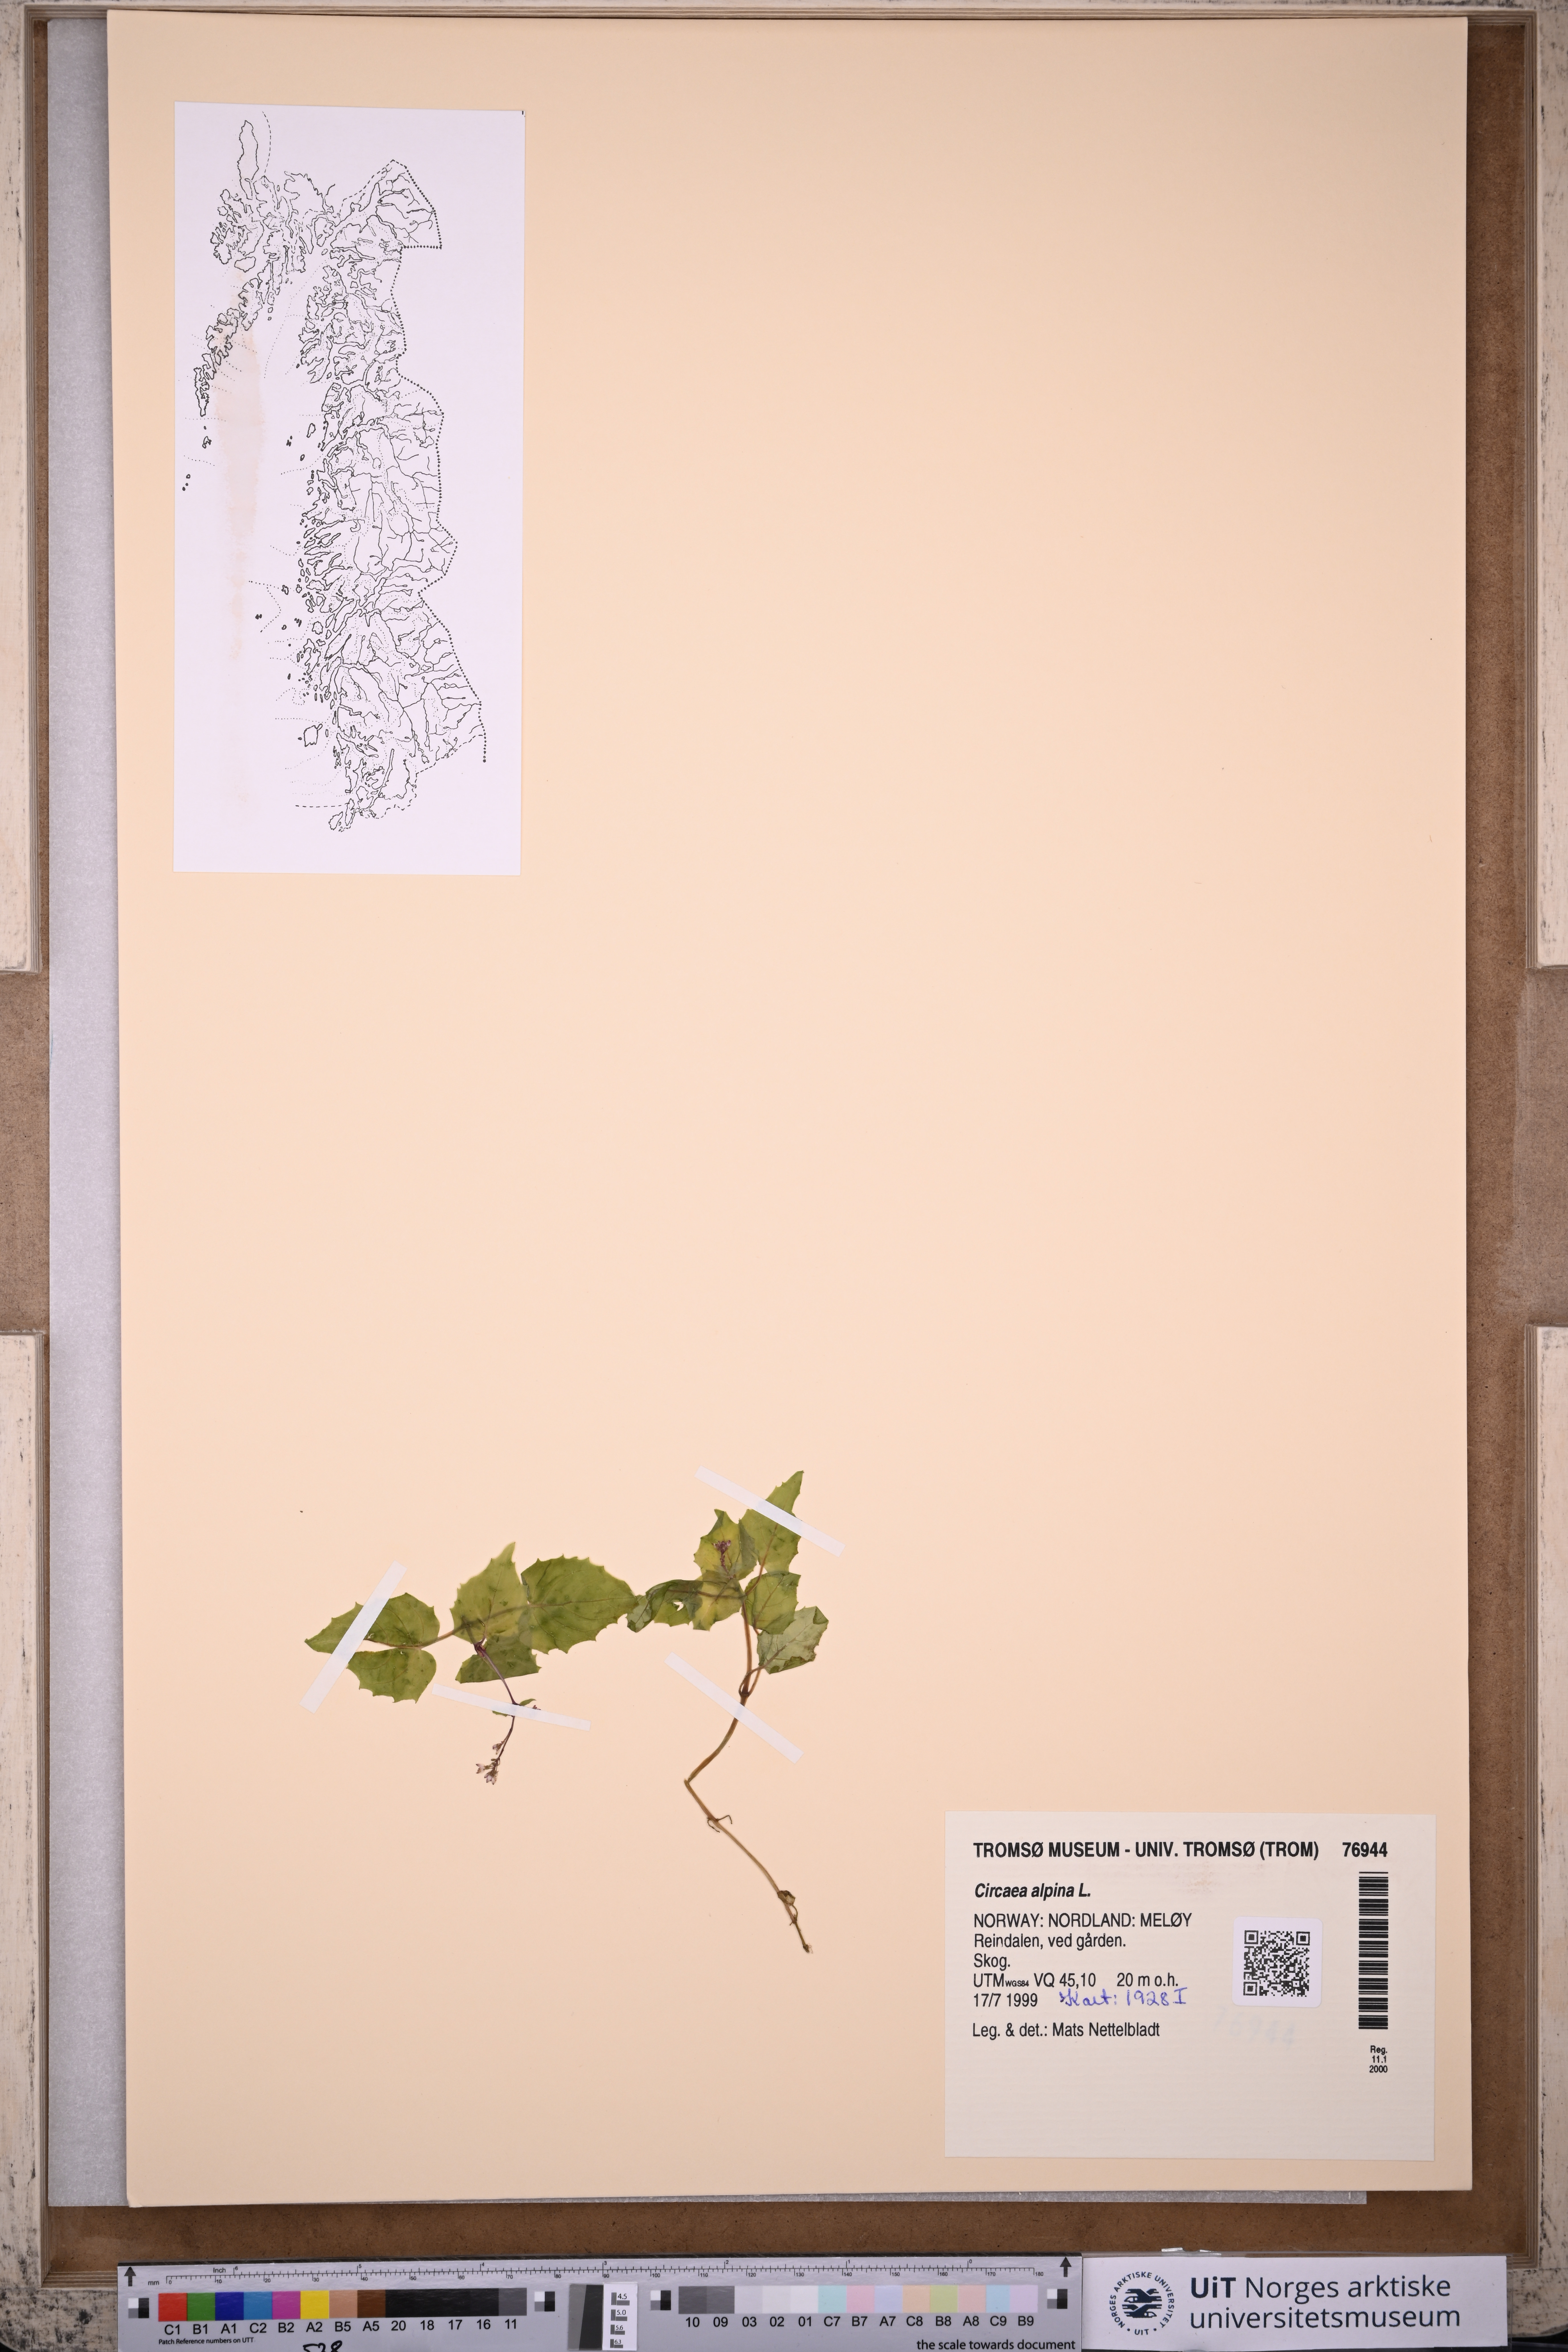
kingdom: Plantae
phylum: Tracheophyta
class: Magnoliopsida
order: Myrtales
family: Onagraceae
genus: Circaea
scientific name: Circaea alpina
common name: Alpine enchanter's-nightshade
